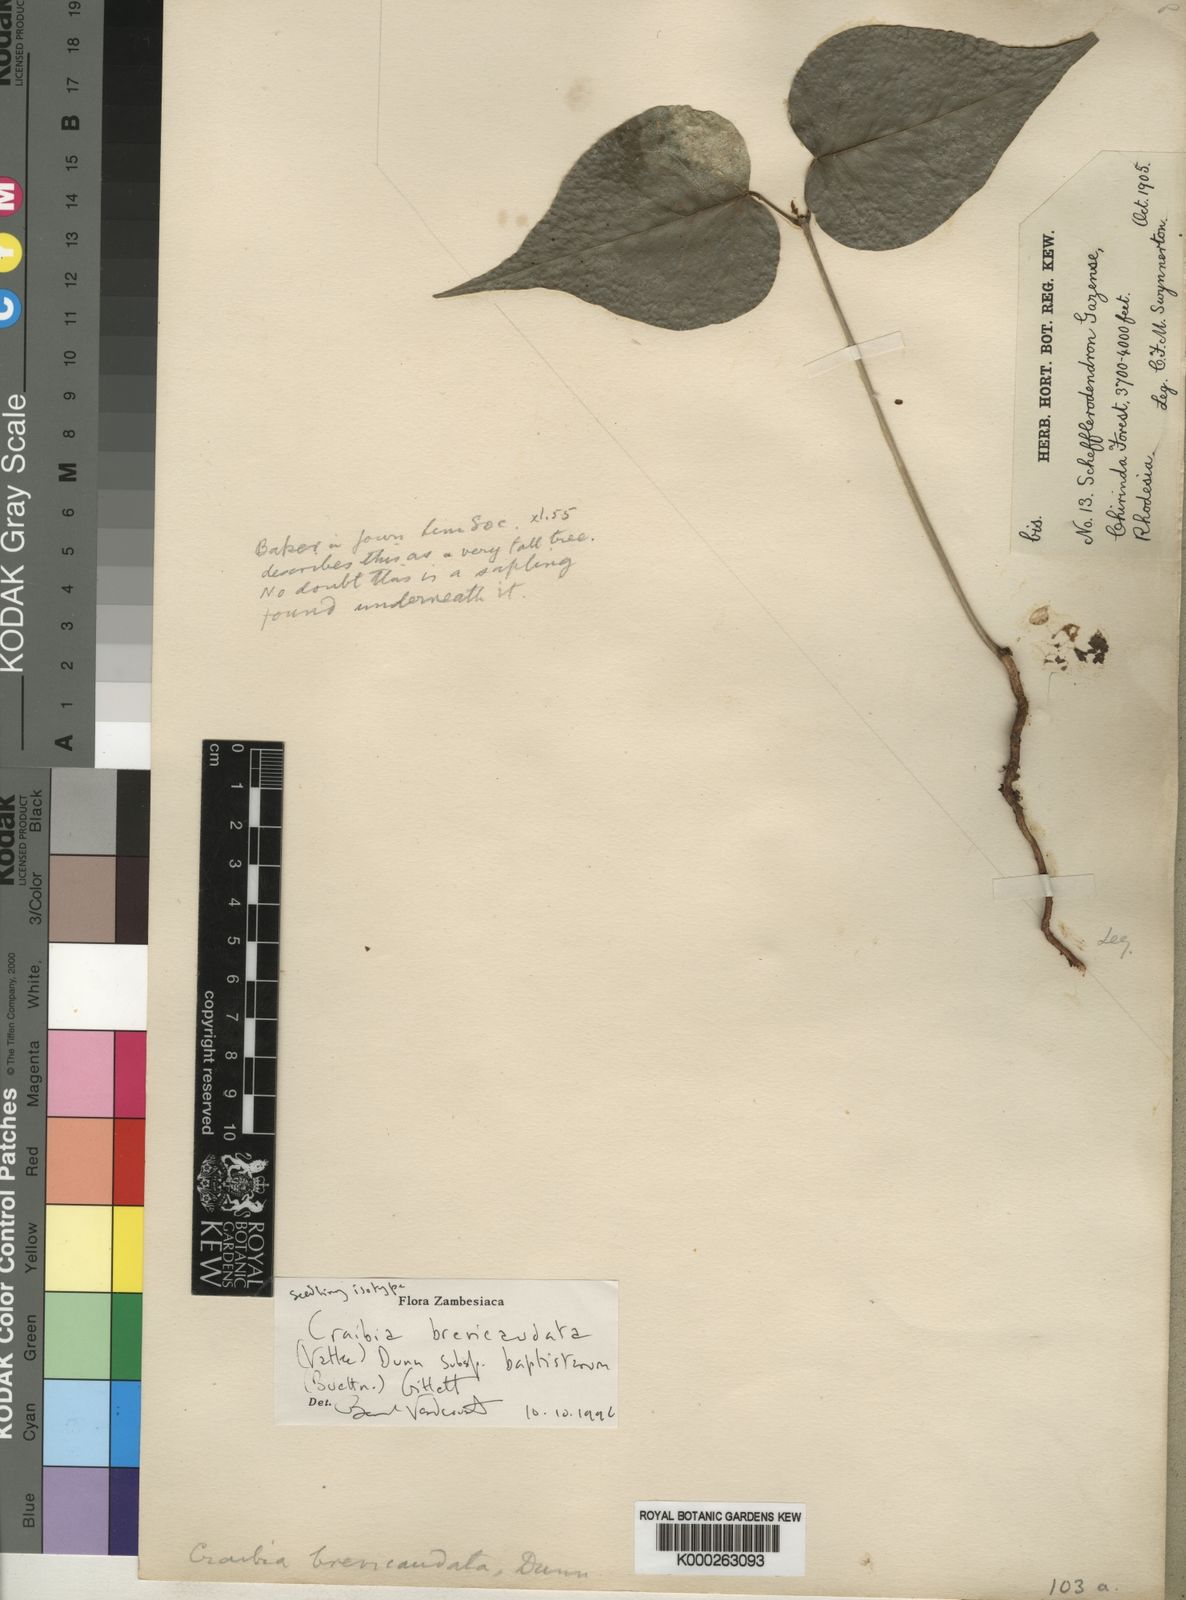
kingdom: Plantae
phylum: Tracheophyta
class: Magnoliopsida
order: Fabales
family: Fabaceae
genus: Craibia
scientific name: Craibia brevicaudata
